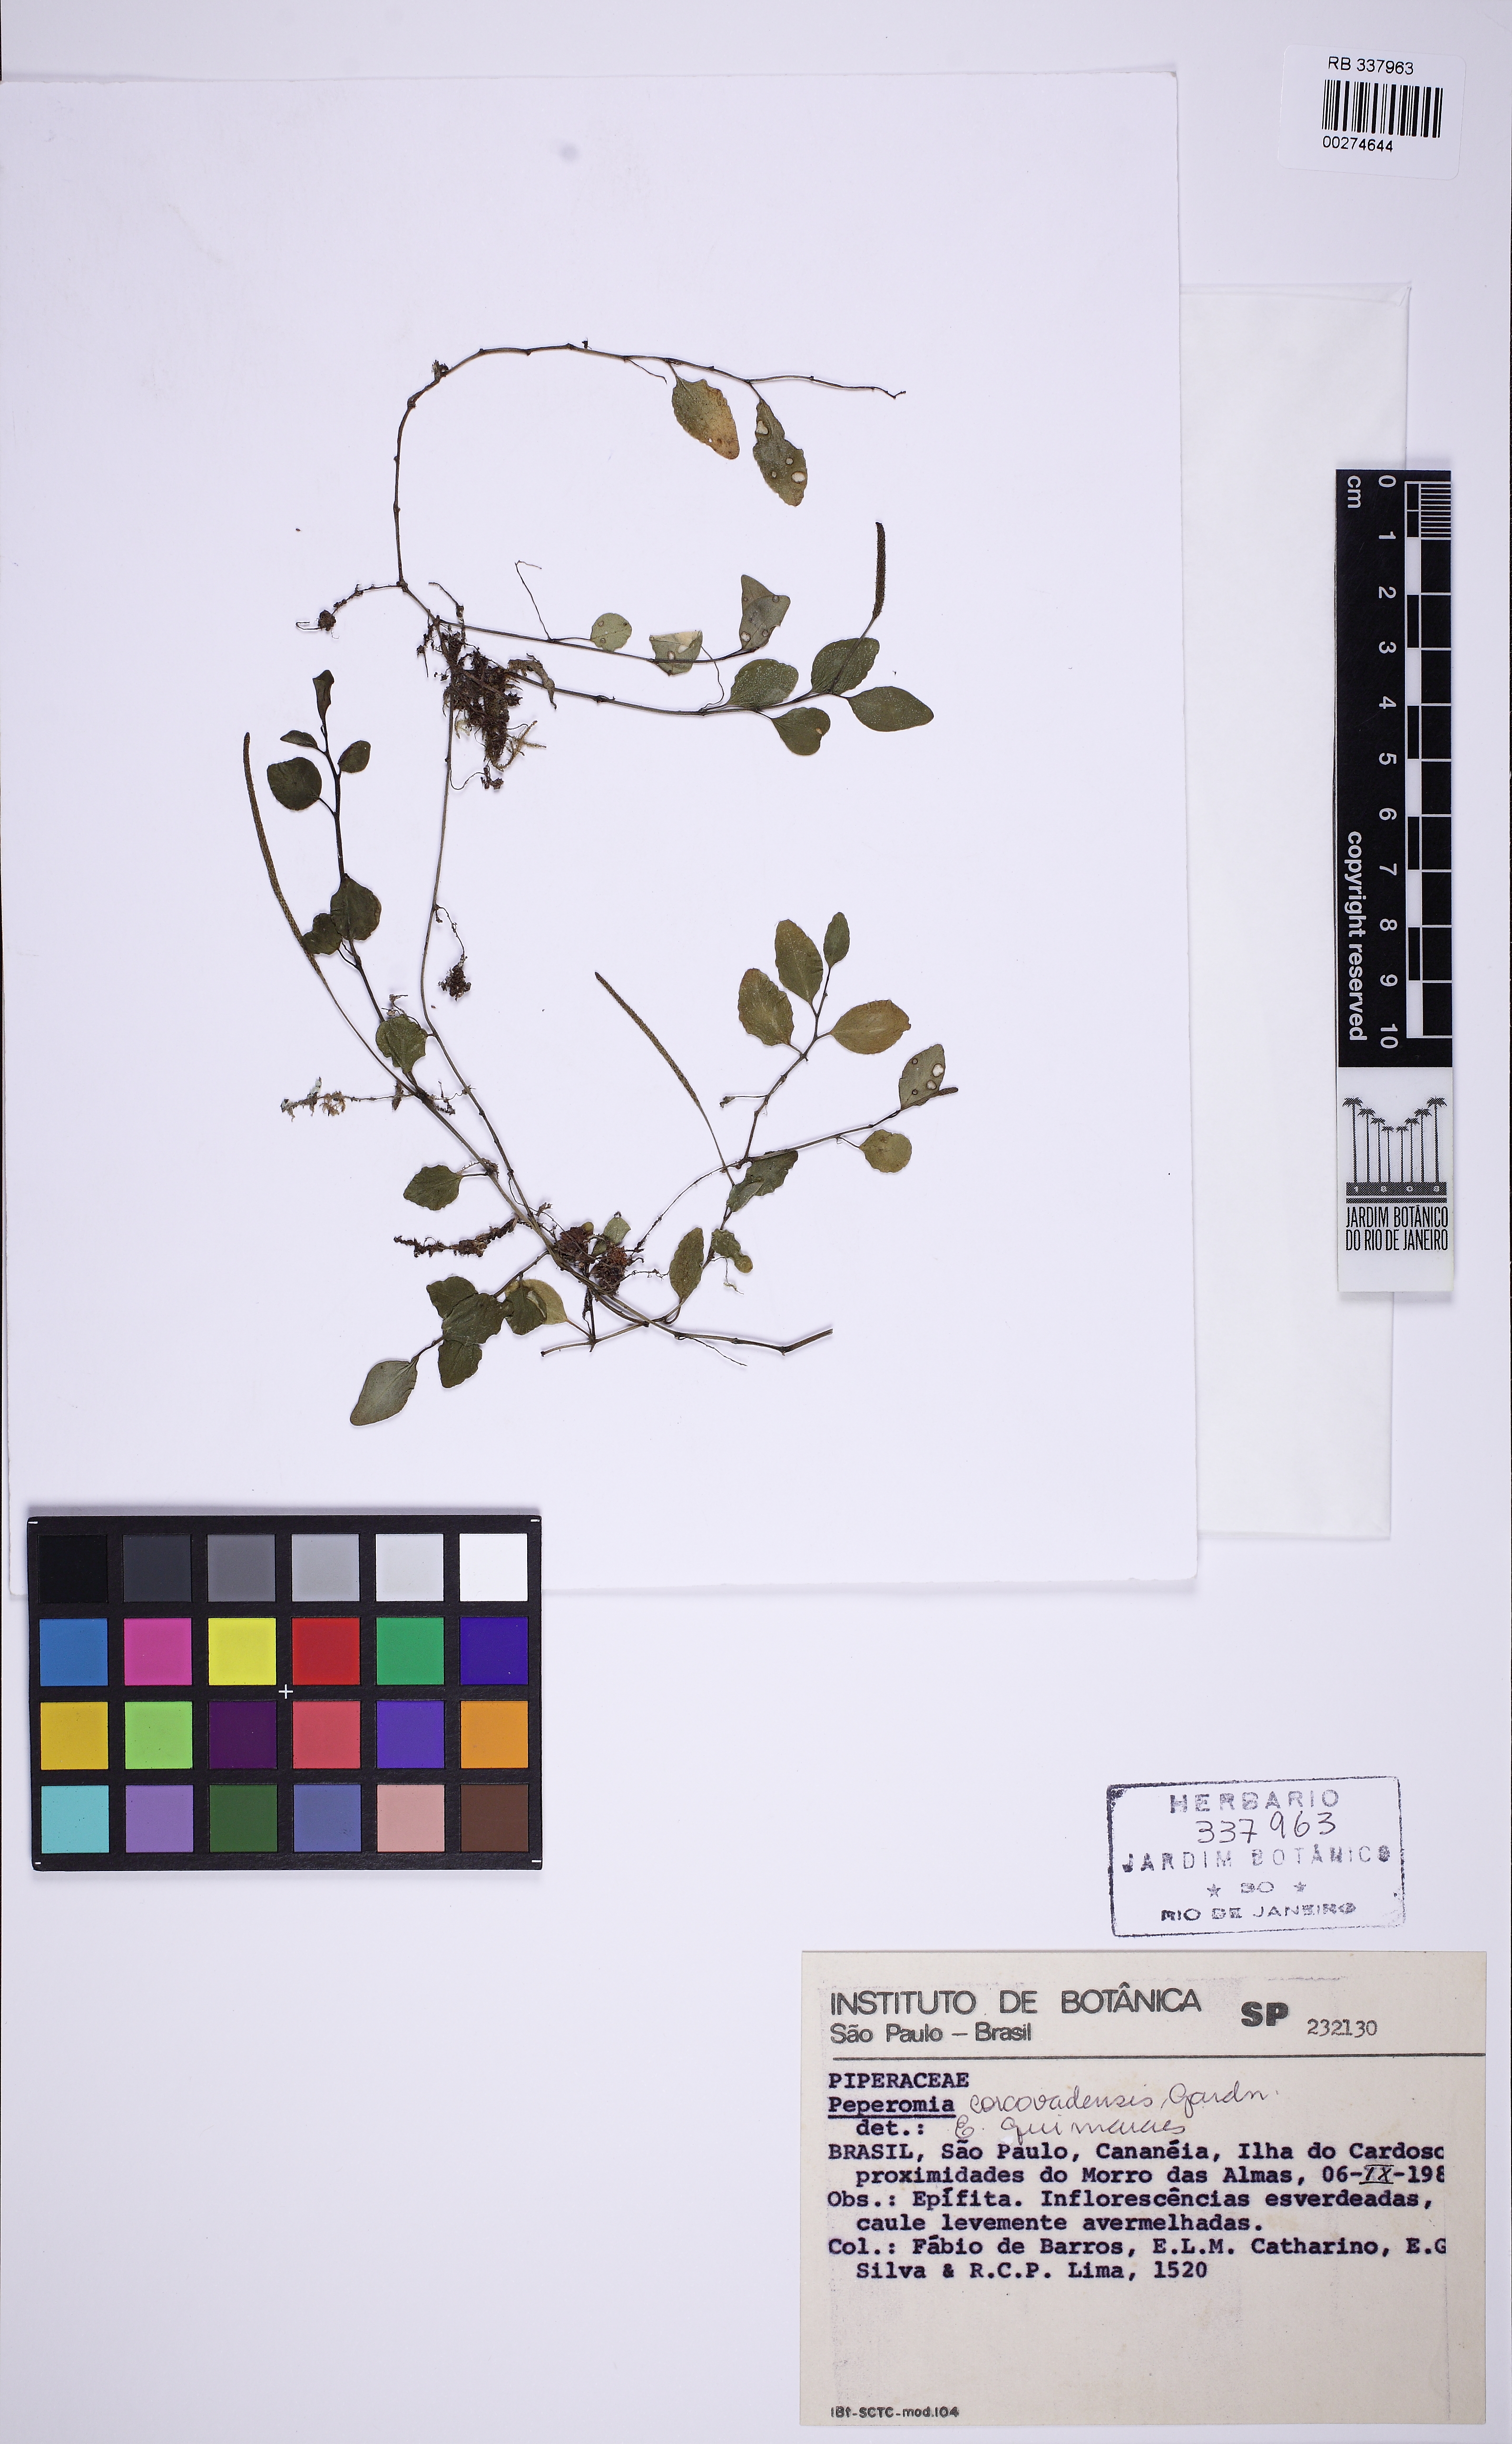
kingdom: Plantae
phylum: Tracheophyta
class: Magnoliopsida
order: Piperales
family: Piperaceae
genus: Peperomia
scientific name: Peperomia corcovadensis
